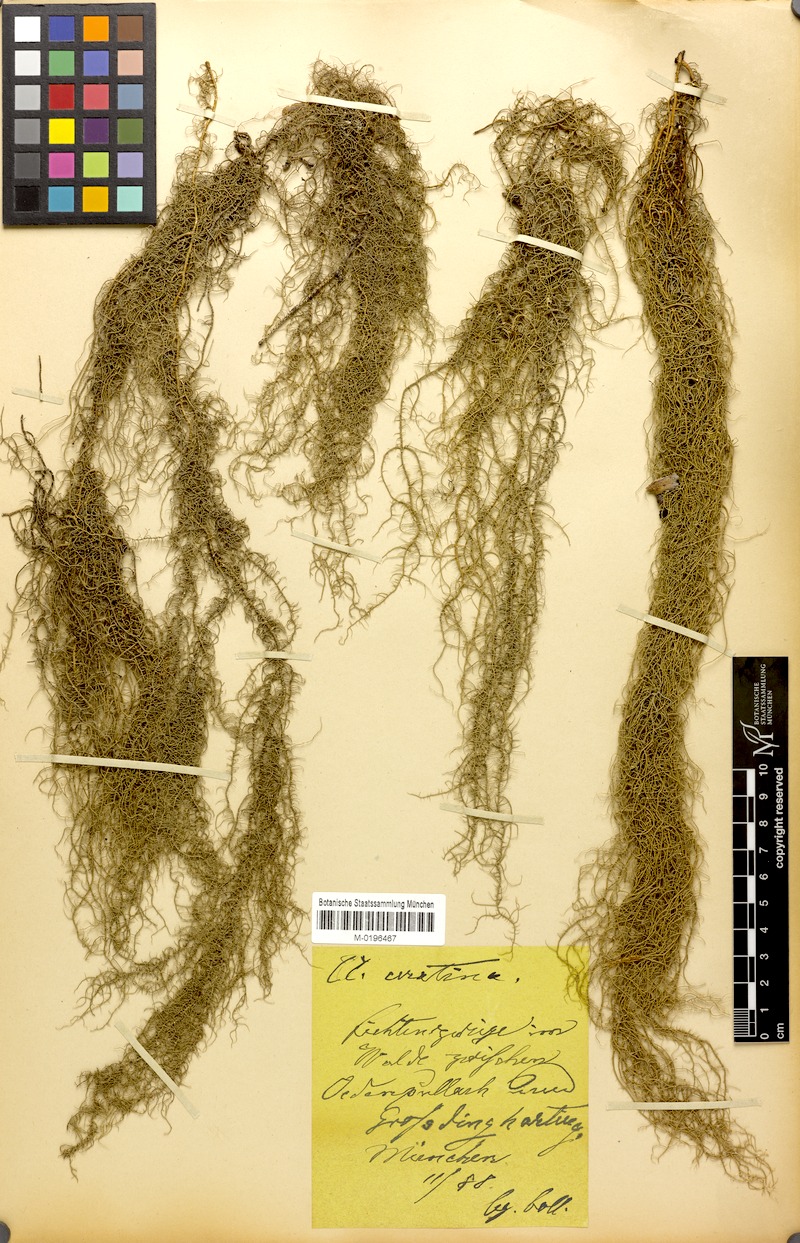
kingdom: Fungi
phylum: Ascomycota
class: Lecanoromycetes
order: Lecanorales
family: Parmeliaceae
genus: Usnea
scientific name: Usnea ceratina
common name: Warty beard lichen
